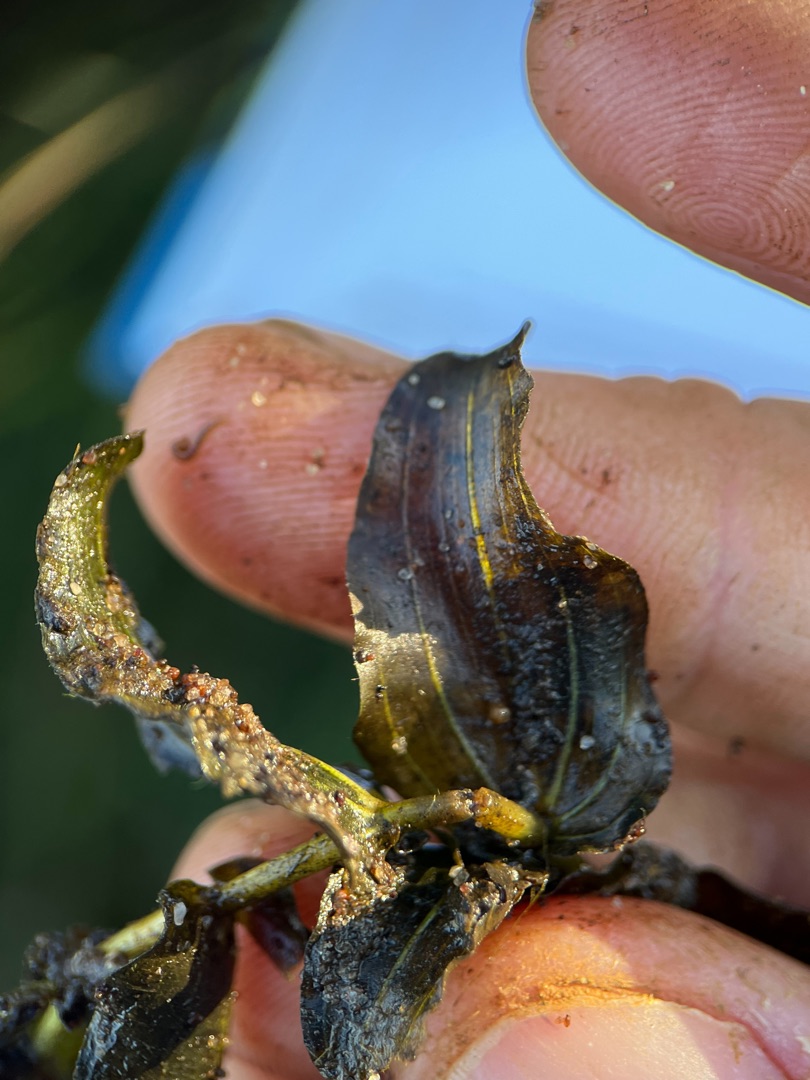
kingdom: Plantae
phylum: Tracheophyta
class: Liliopsida
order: Alismatales
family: Potamogetonaceae
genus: Potamogeton
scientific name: Potamogeton perfoliatus
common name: Hjertebladet vandaks
